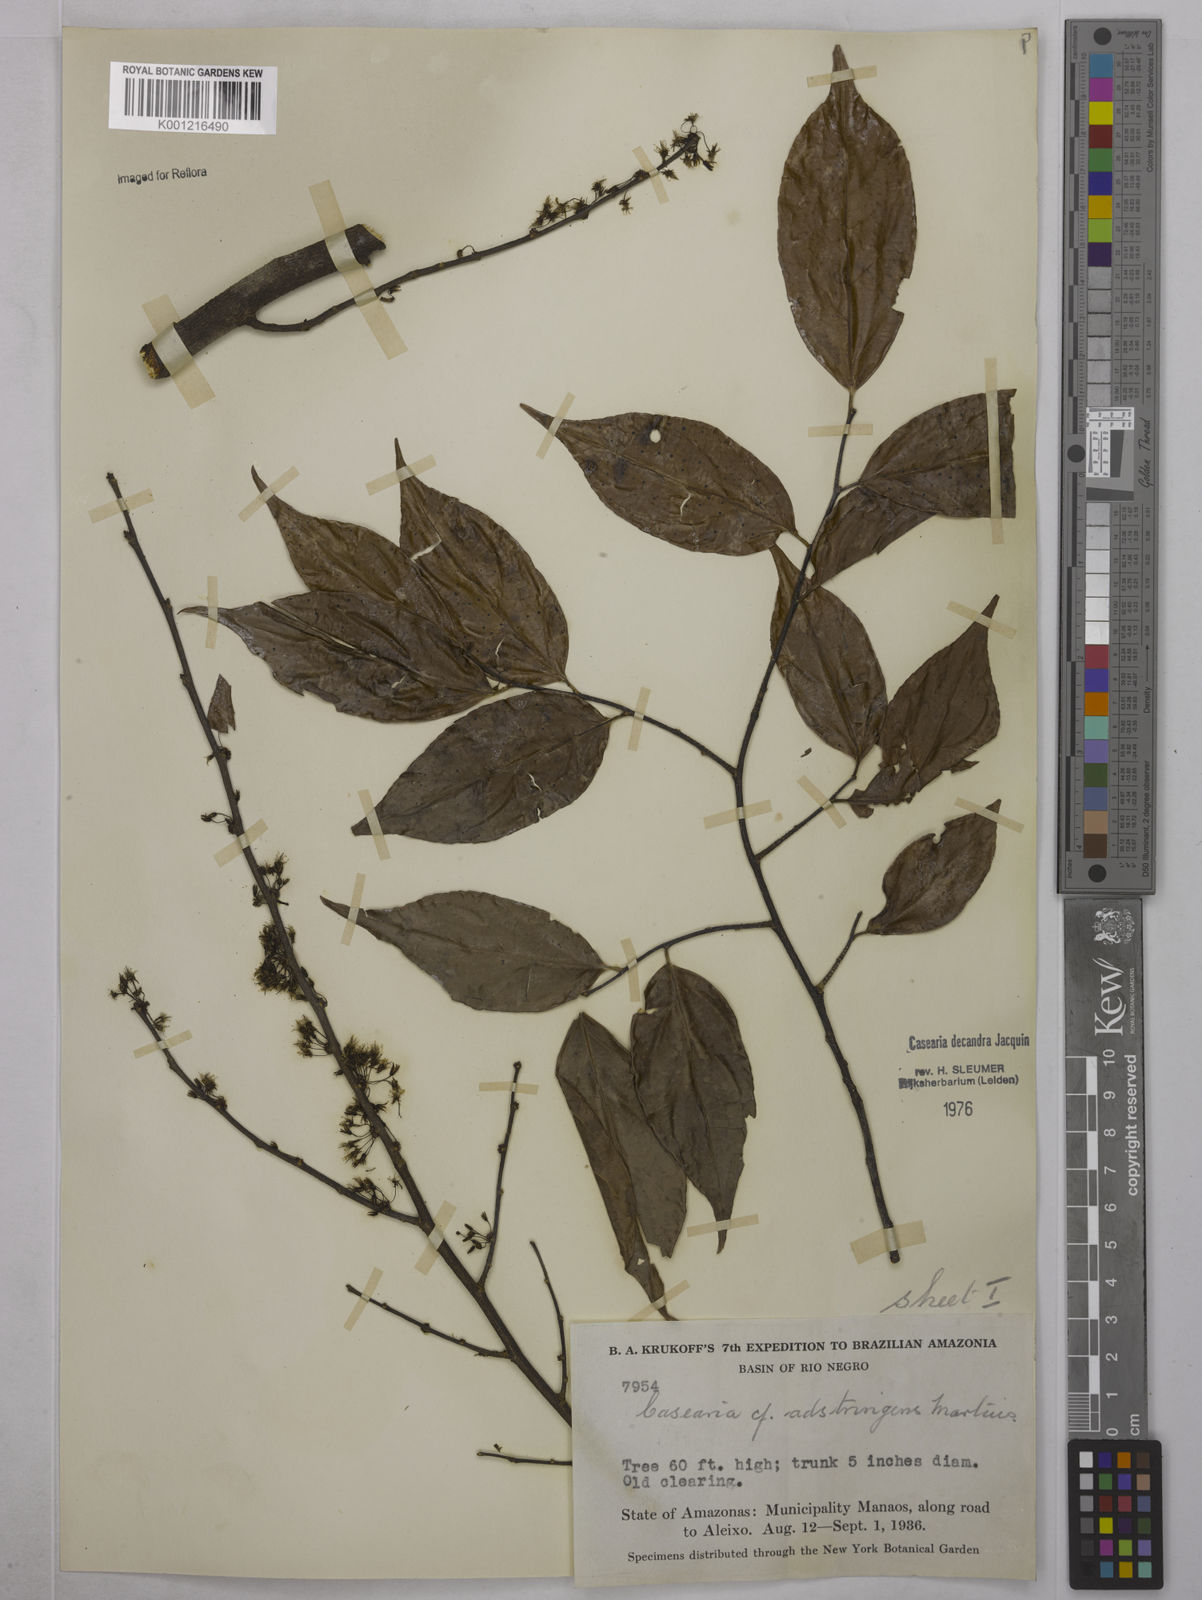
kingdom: Plantae
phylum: Tracheophyta
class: Magnoliopsida
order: Malpighiales
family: Salicaceae
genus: Casearia
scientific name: Casearia decandra
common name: Crack open
